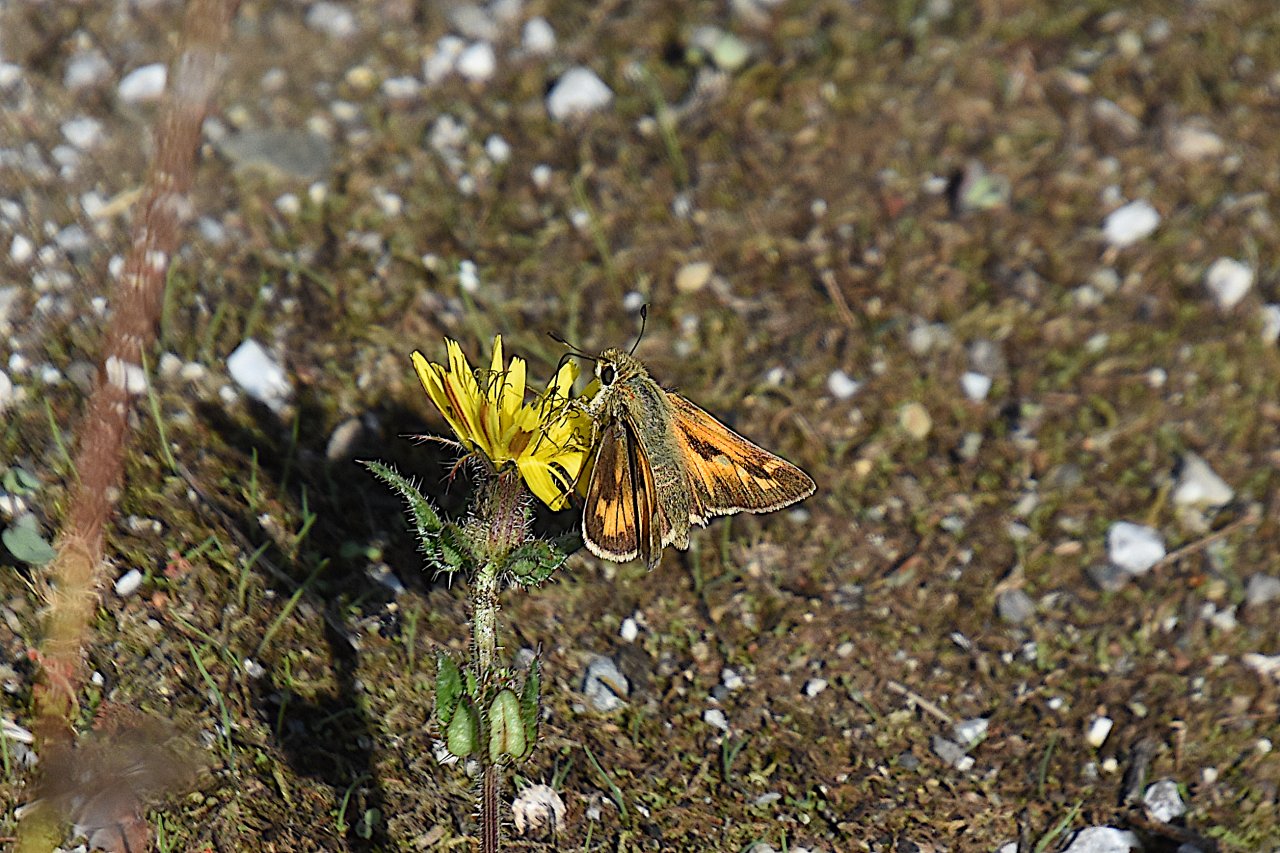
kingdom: Animalia
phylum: Arthropoda
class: Insecta
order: Lepidoptera
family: Hesperiidae
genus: Atalopedes
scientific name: Atalopedes campestris
